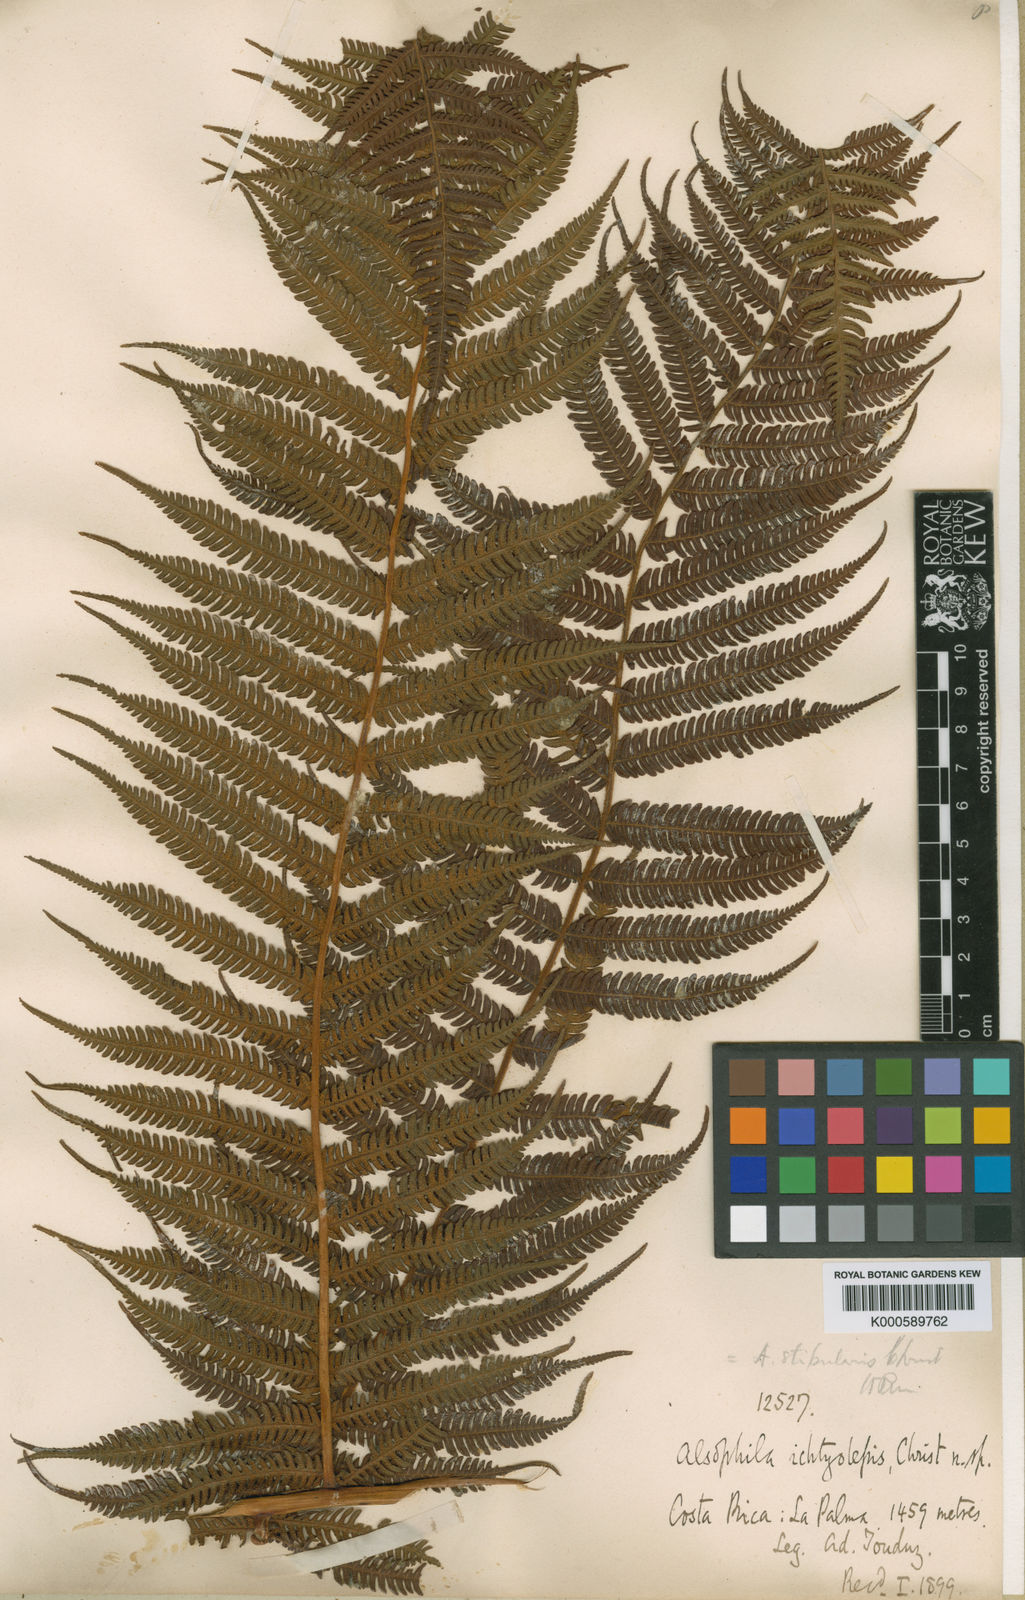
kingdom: Plantae
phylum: Tracheophyta
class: Polypodiopsida
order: Cyatheales
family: Cyatheaceae
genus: Cyathea
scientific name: Cyathea bicrenata
